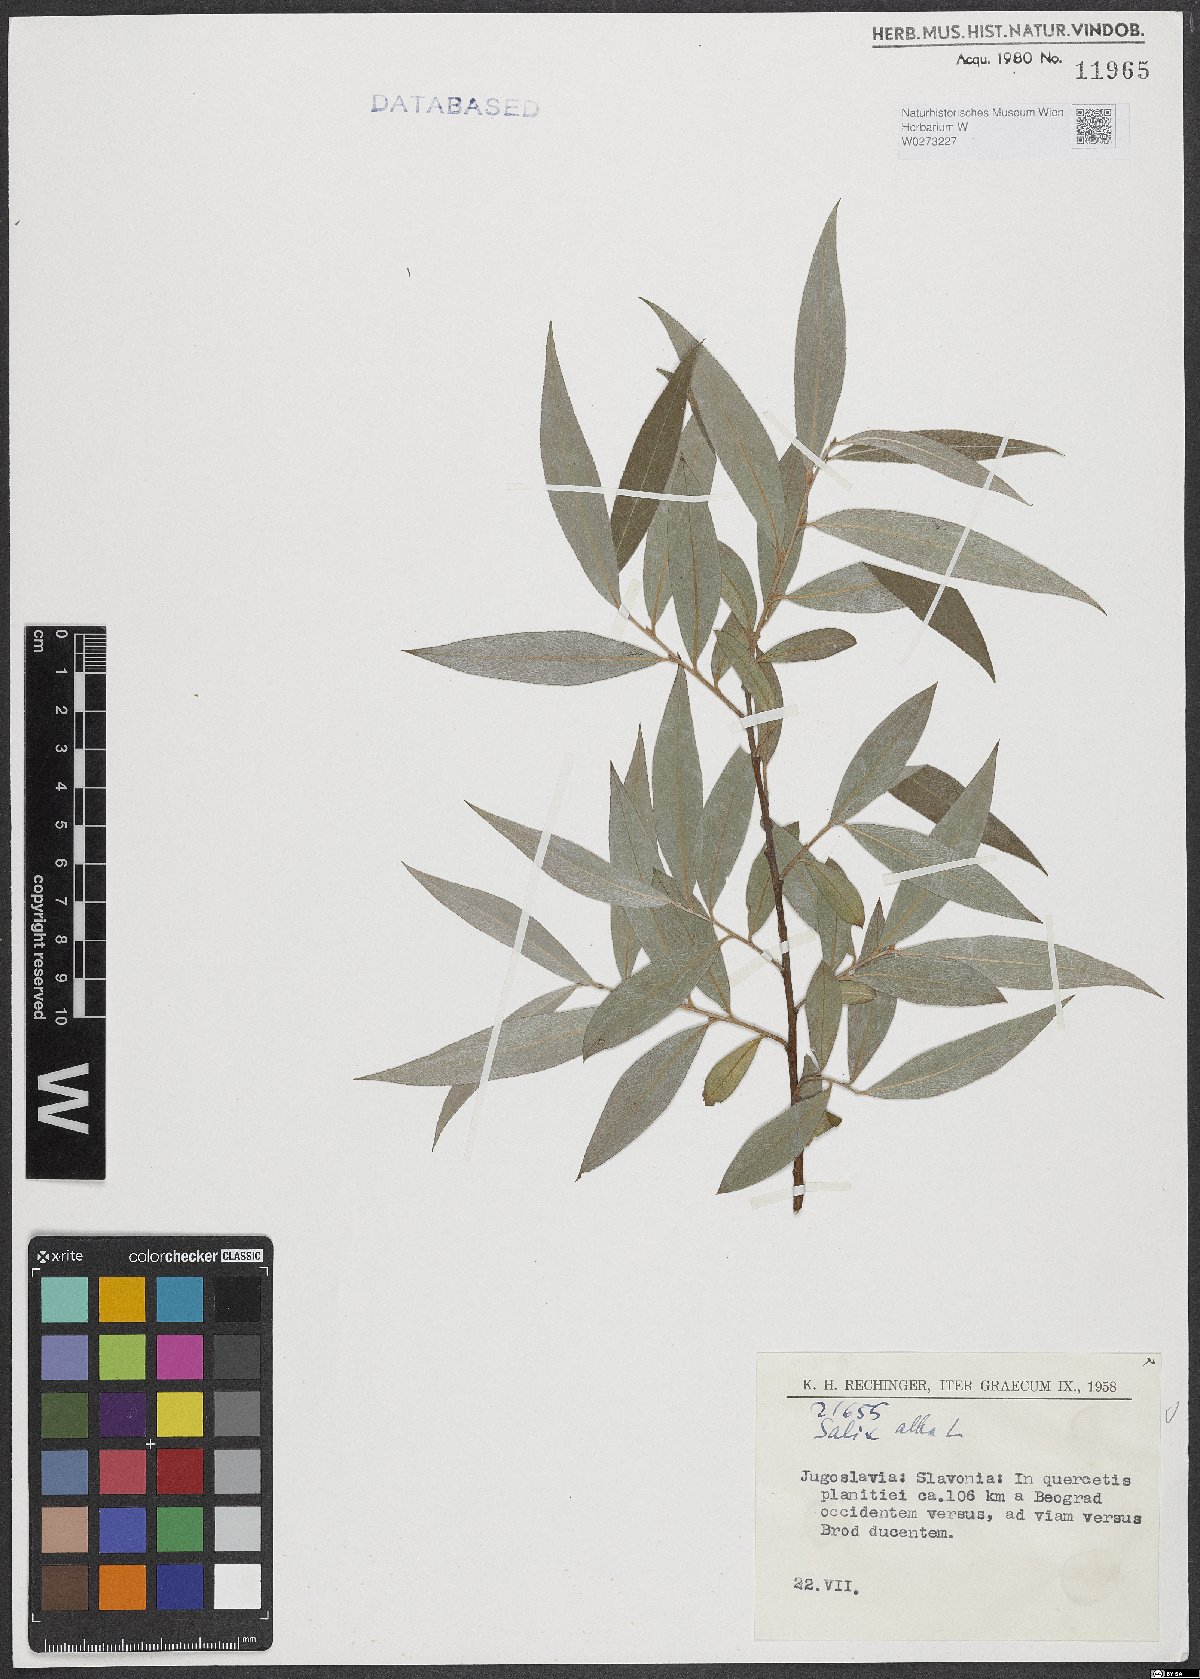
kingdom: Plantae
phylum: Tracheophyta
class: Magnoliopsida
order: Malpighiales
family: Salicaceae
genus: Salix
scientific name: Salix alba
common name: White willow
